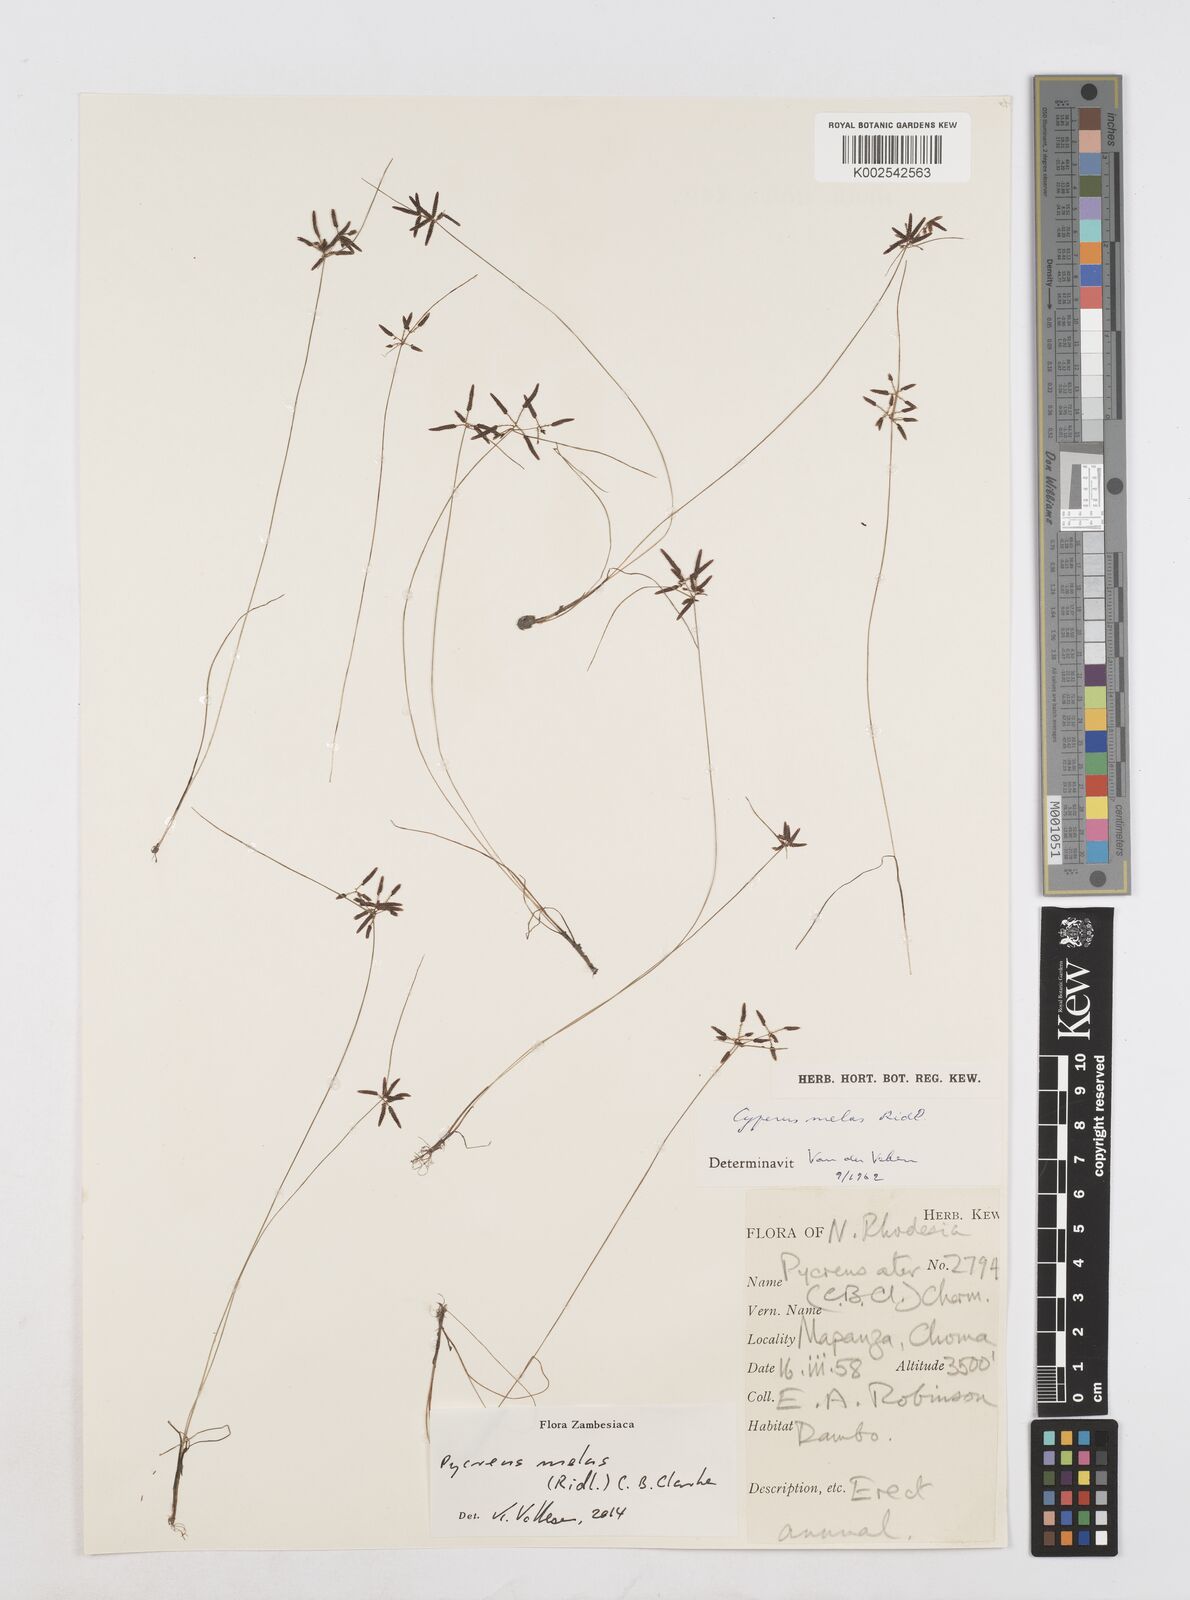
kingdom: Plantae
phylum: Tracheophyta
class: Liliopsida
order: Poales
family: Cyperaceae
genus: Cyperus
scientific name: Cyperus melas
